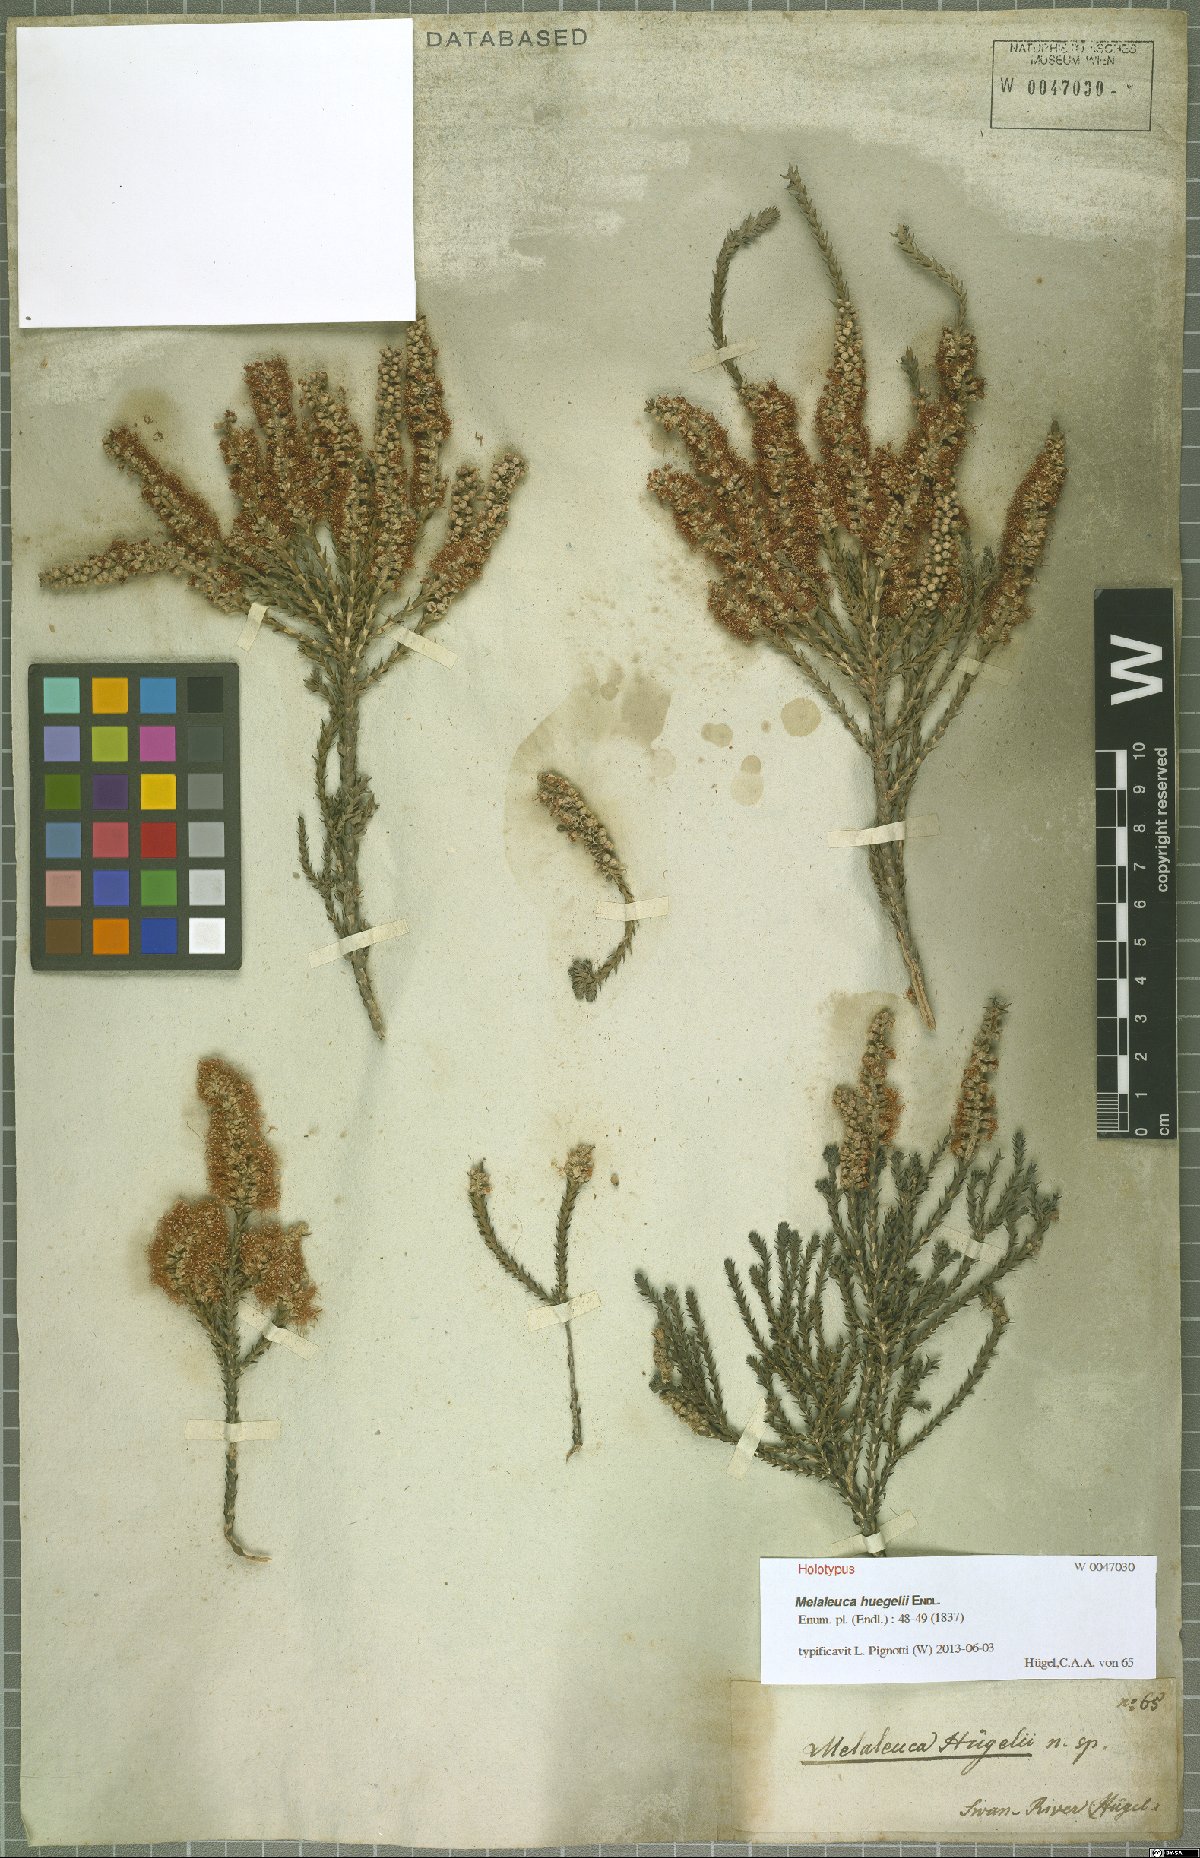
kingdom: Plantae
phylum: Tracheophyta
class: Magnoliopsida
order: Myrtales
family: Myrtaceae
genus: Melaleuca
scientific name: Melaleuca huegelii
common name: Chenille honey myrtle
